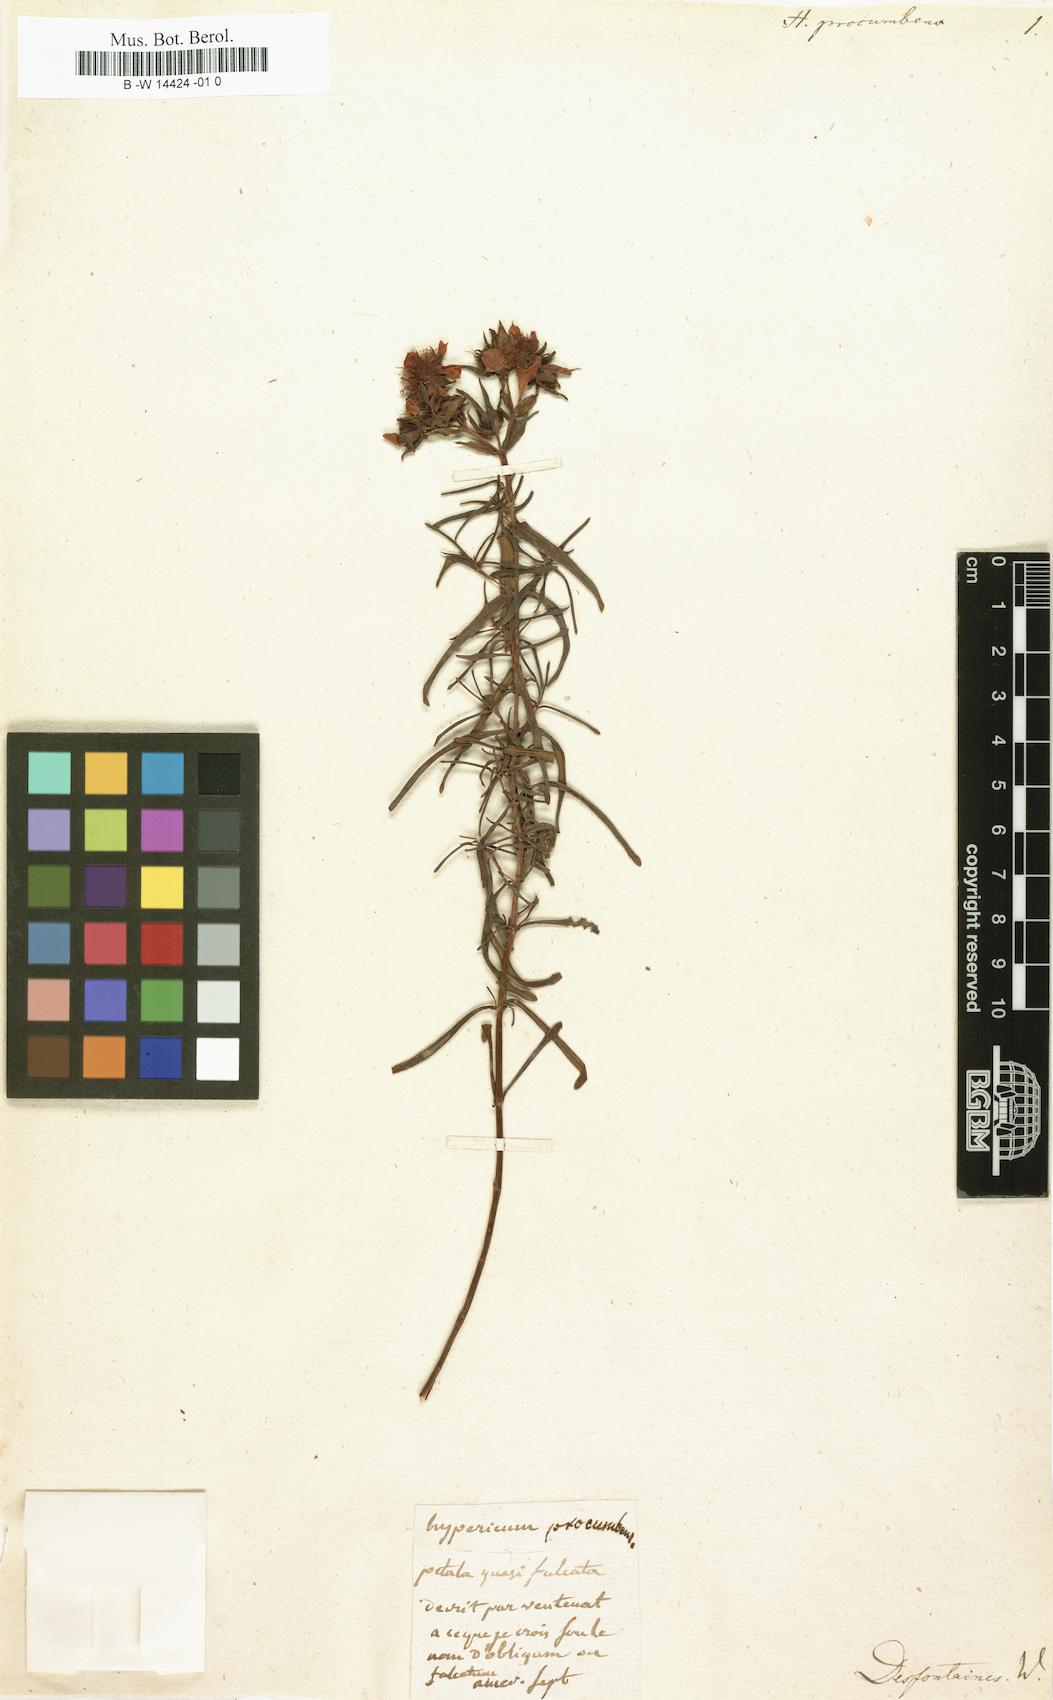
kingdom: Plantae
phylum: Tracheophyta
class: Magnoliopsida
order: Malpighiales
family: Hypericaceae
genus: Hypericum
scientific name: Hypericum
